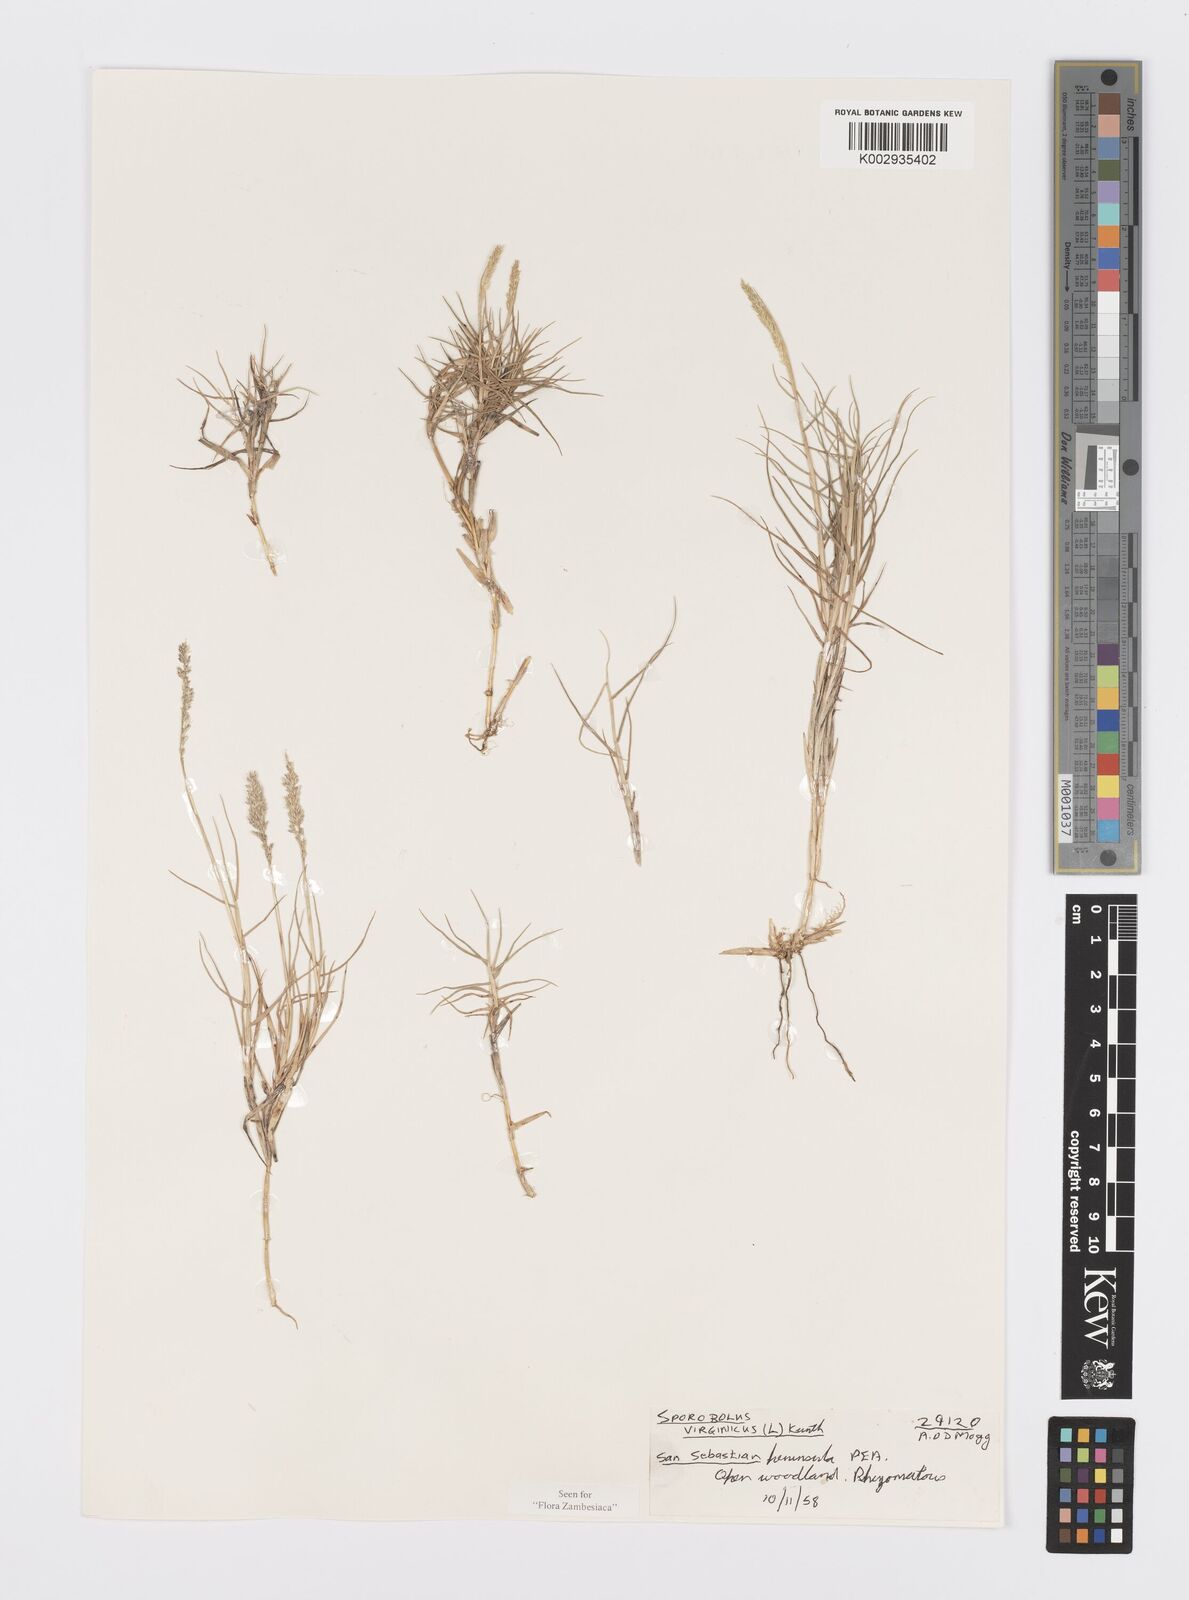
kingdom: Plantae
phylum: Tracheophyta
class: Liliopsida
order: Poales
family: Poaceae
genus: Sporobolus
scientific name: Sporobolus virginicus
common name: Beach dropseed
